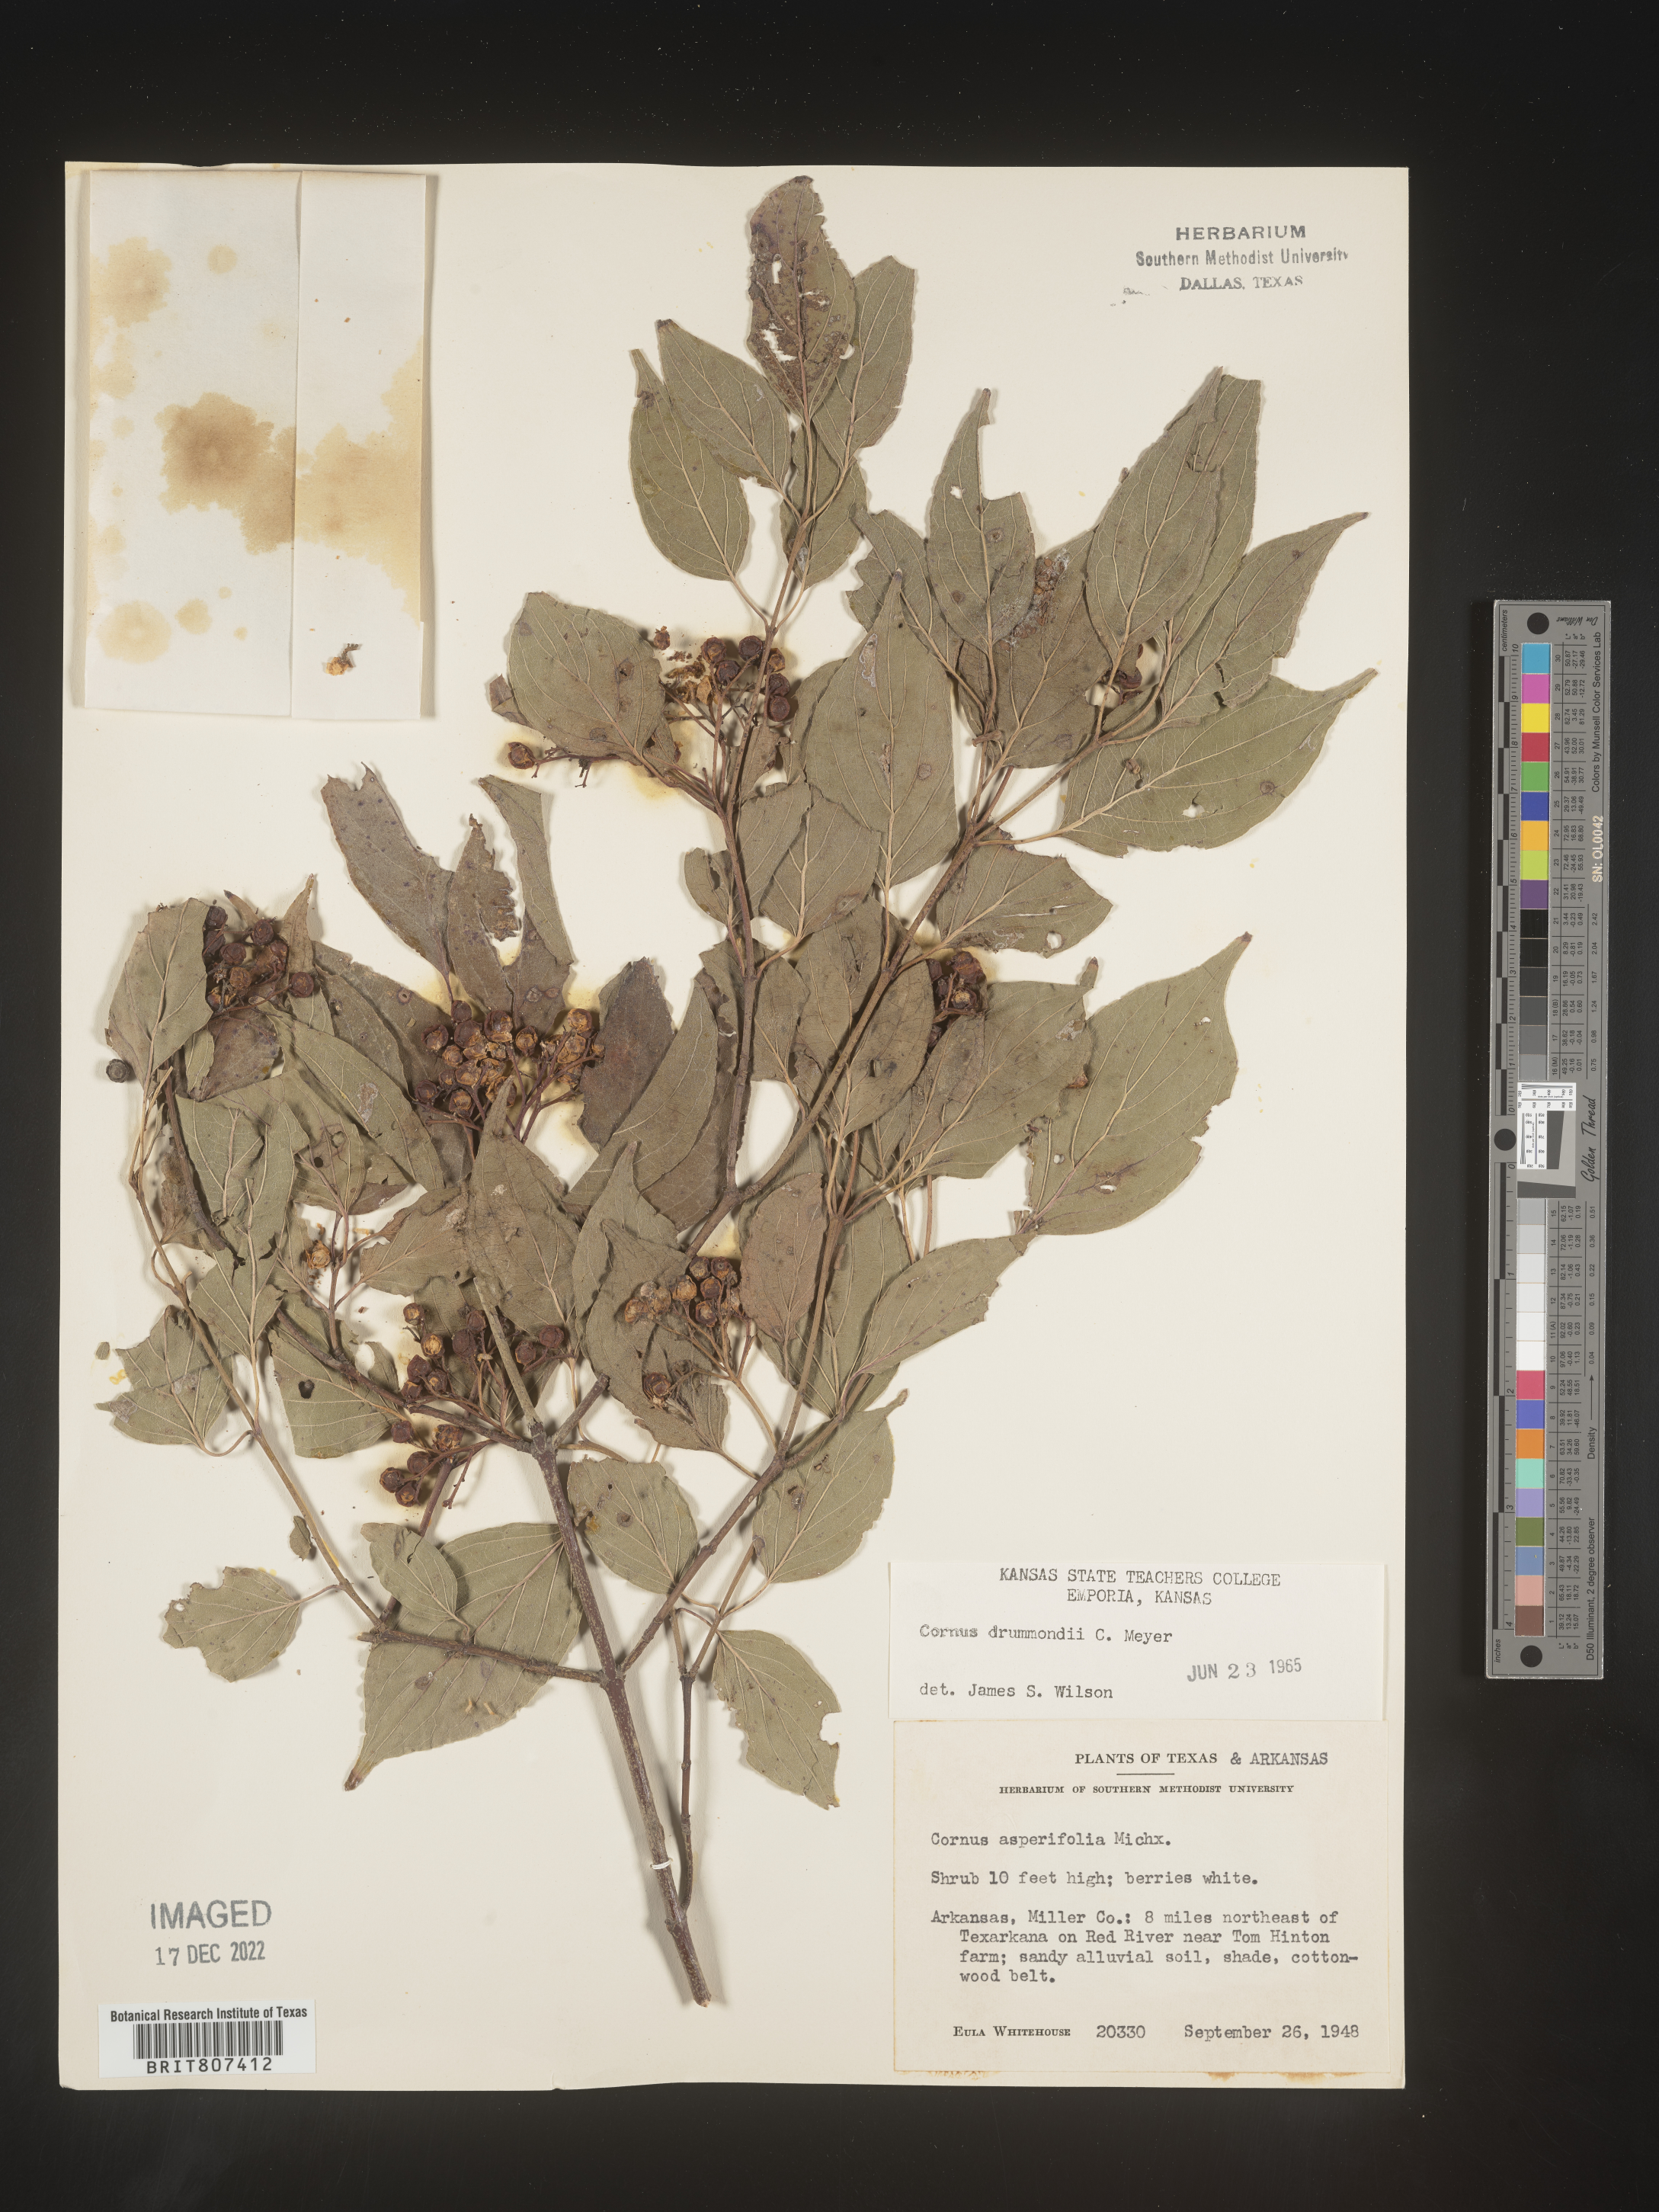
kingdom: Plantae
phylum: Tracheophyta
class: Magnoliopsida
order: Cornales
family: Cornaceae
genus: Cornus
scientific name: Cornus drummondii
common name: Rough-leaf dogwood
